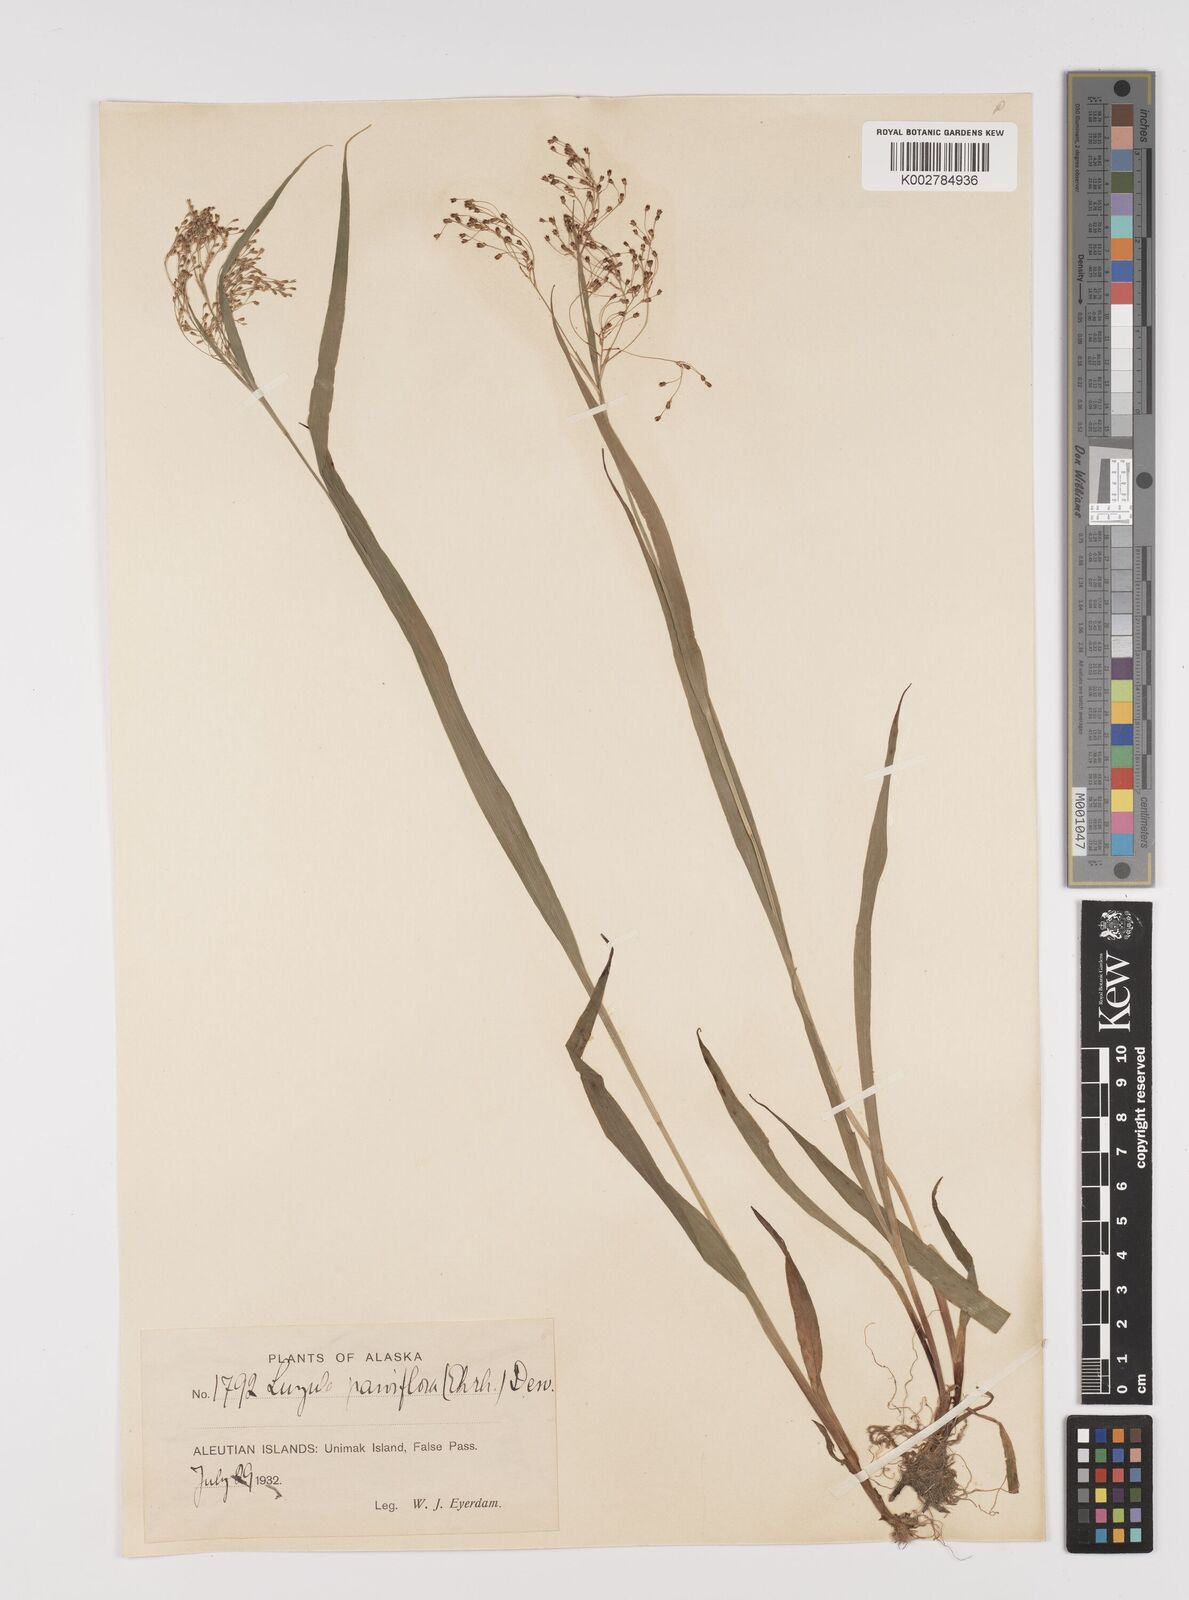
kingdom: Plantae
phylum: Tracheophyta
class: Liliopsida
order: Poales
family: Juncaceae
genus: Luzula
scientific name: Luzula parviflora
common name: Millet woodrush
